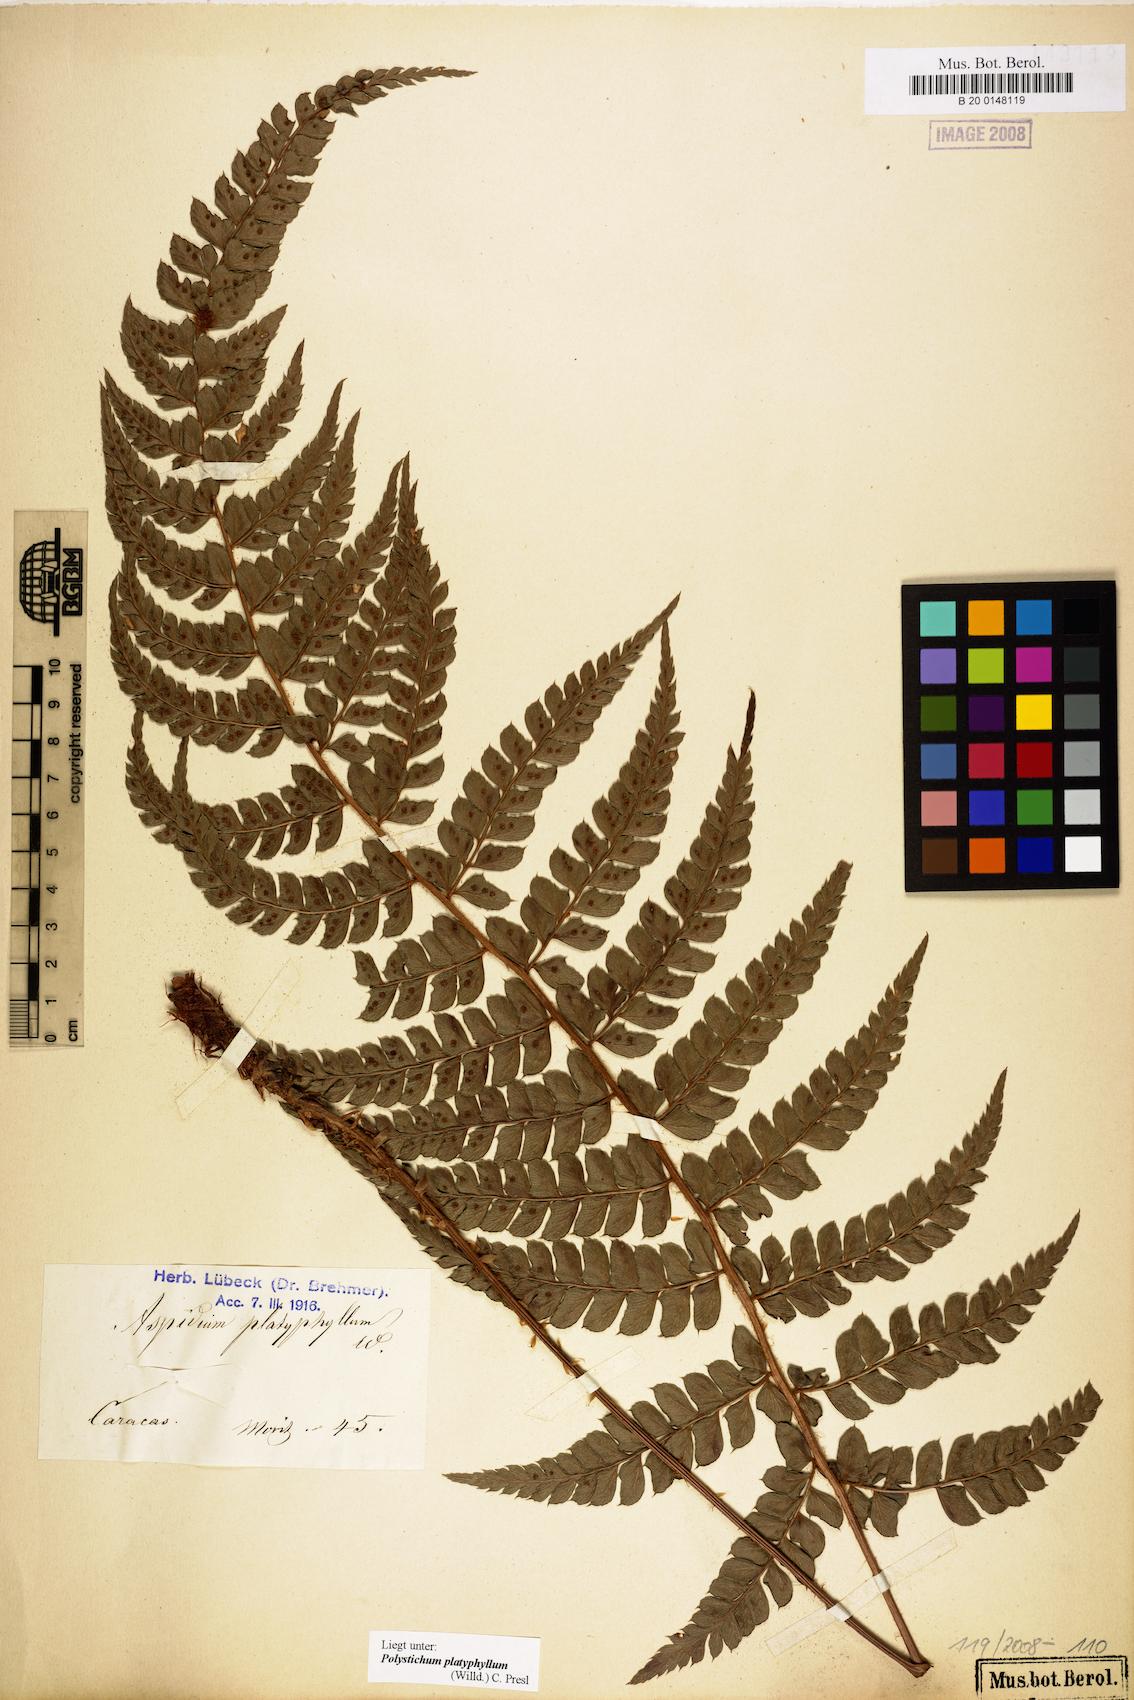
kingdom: Plantae
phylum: Tracheophyta
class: Polypodiopsida
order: Polypodiales
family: Dryopteridaceae
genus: Polystichum
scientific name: Polystichum platyphyllum
